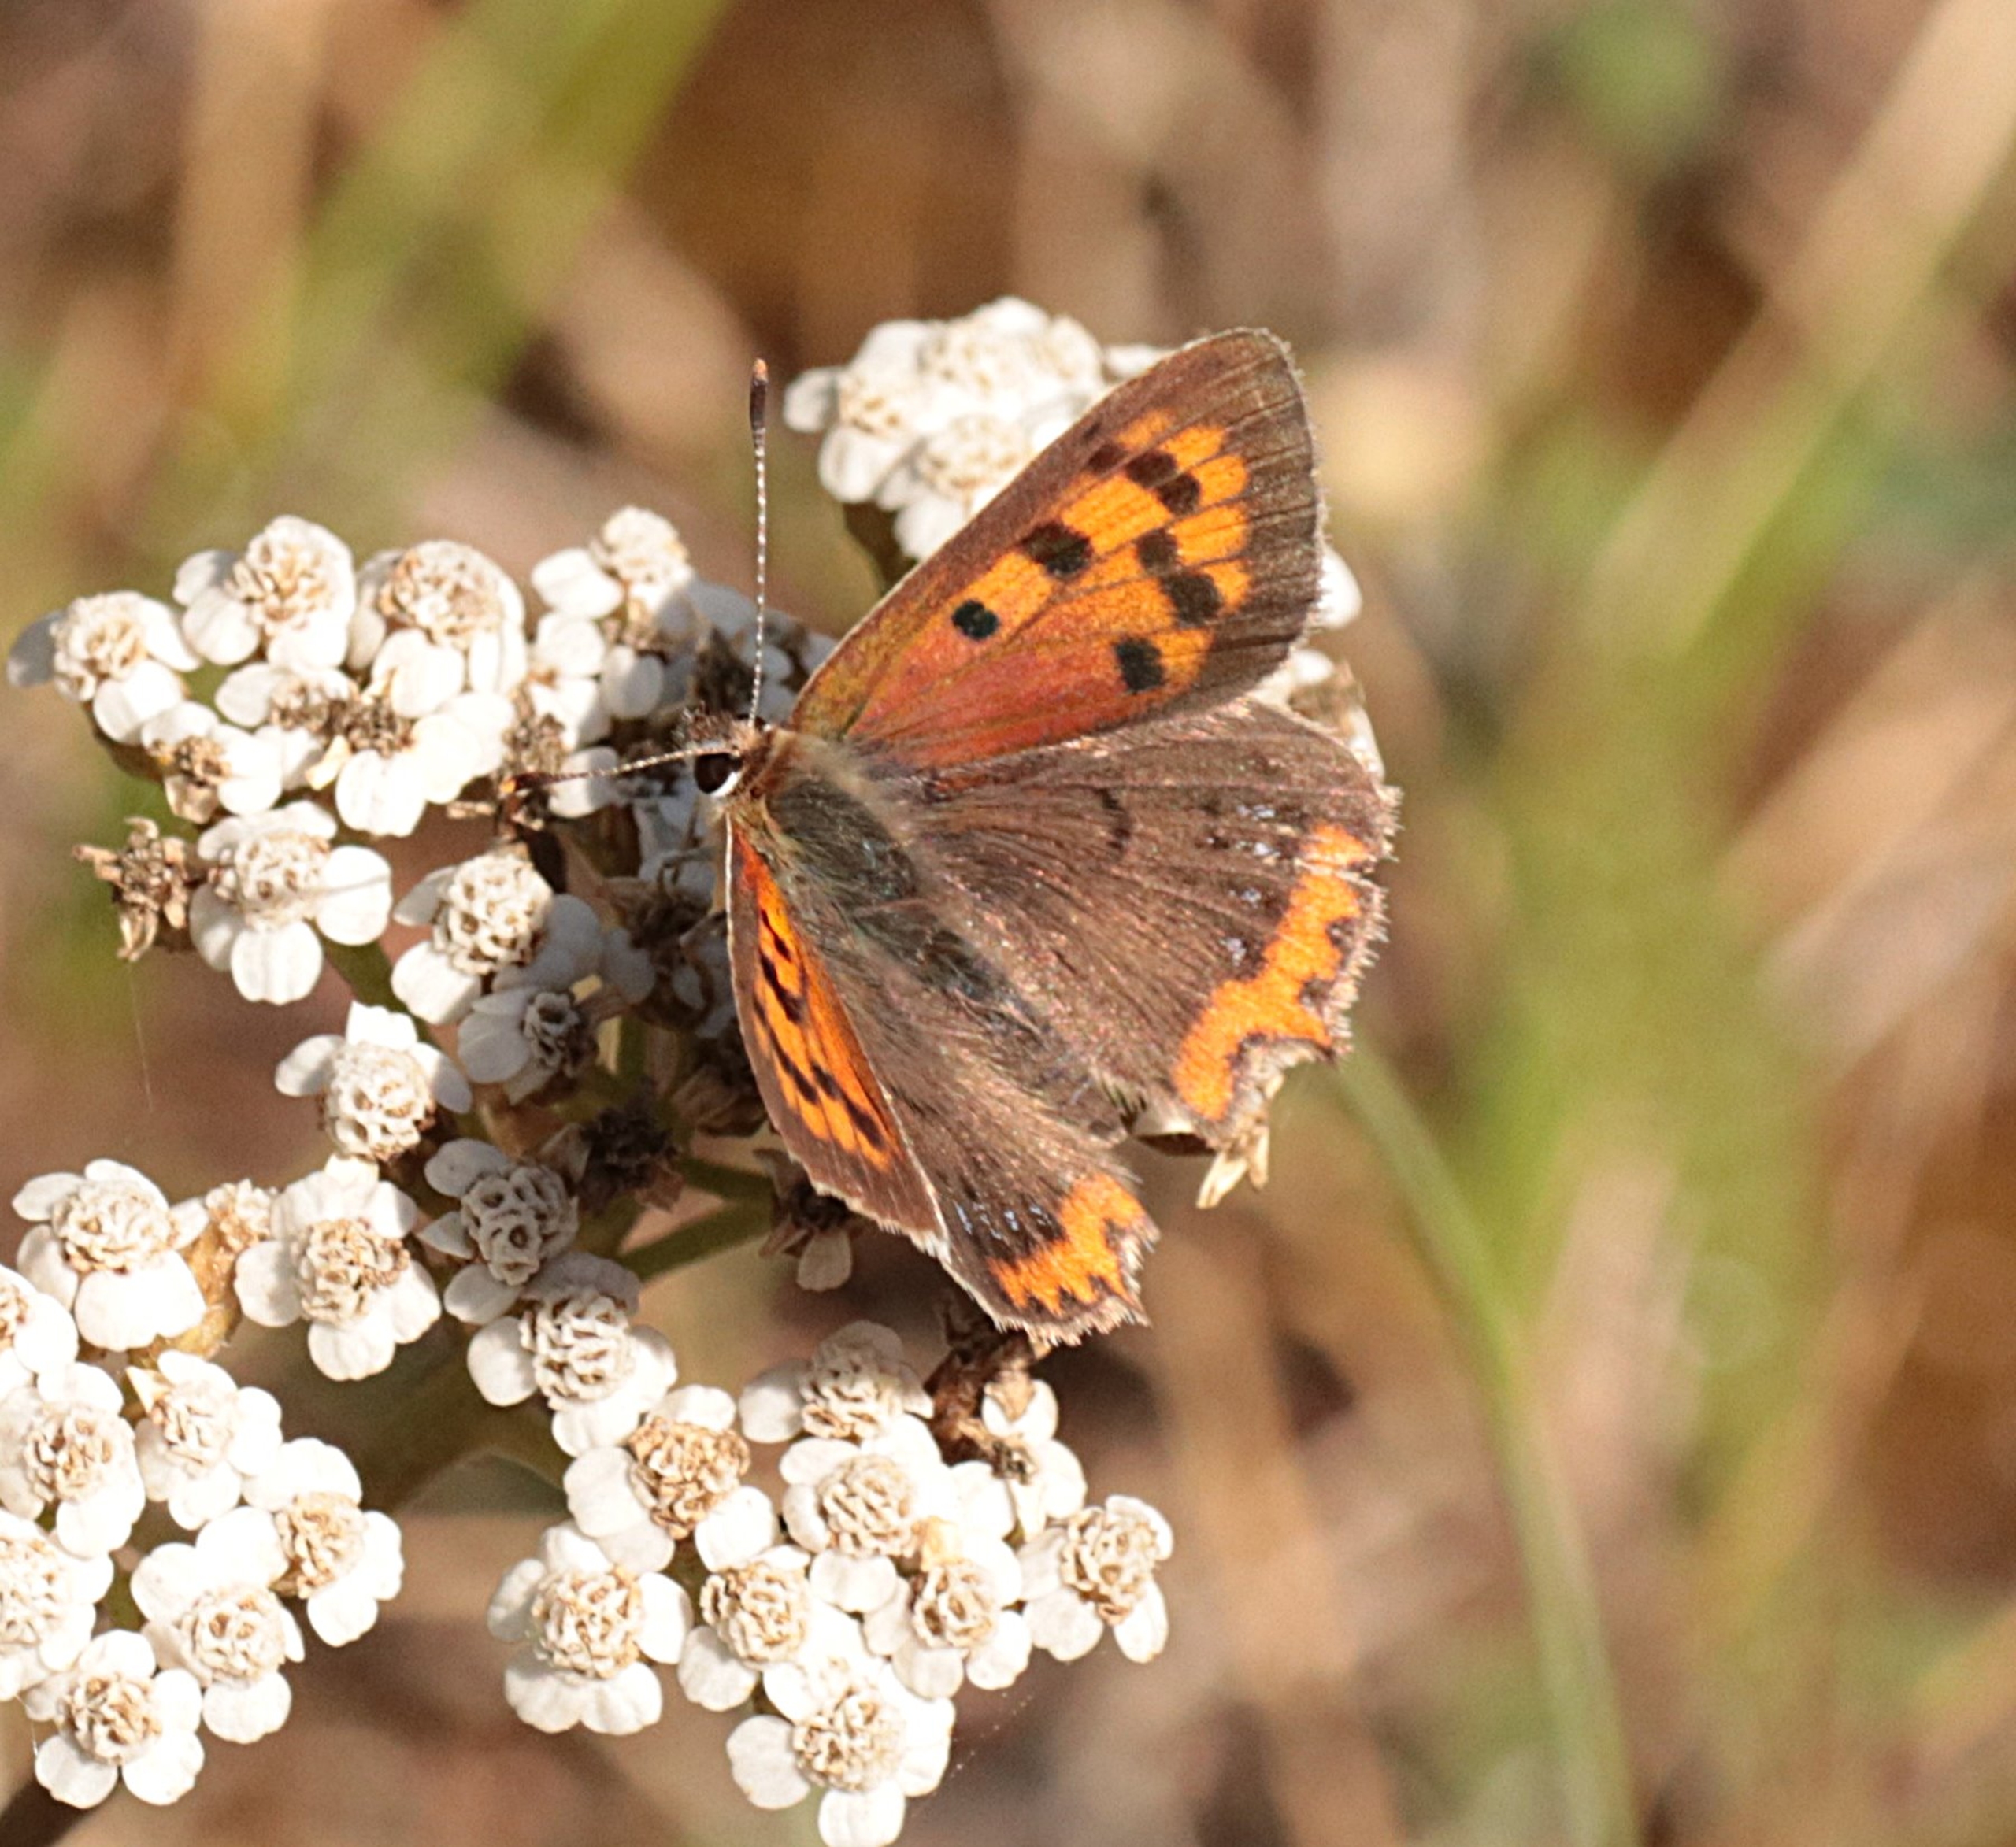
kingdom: Animalia
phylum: Arthropoda
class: Insecta
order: Lepidoptera
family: Lycaenidae
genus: Lycaena
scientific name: Lycaena phlaeas
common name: Lille ildfugl
